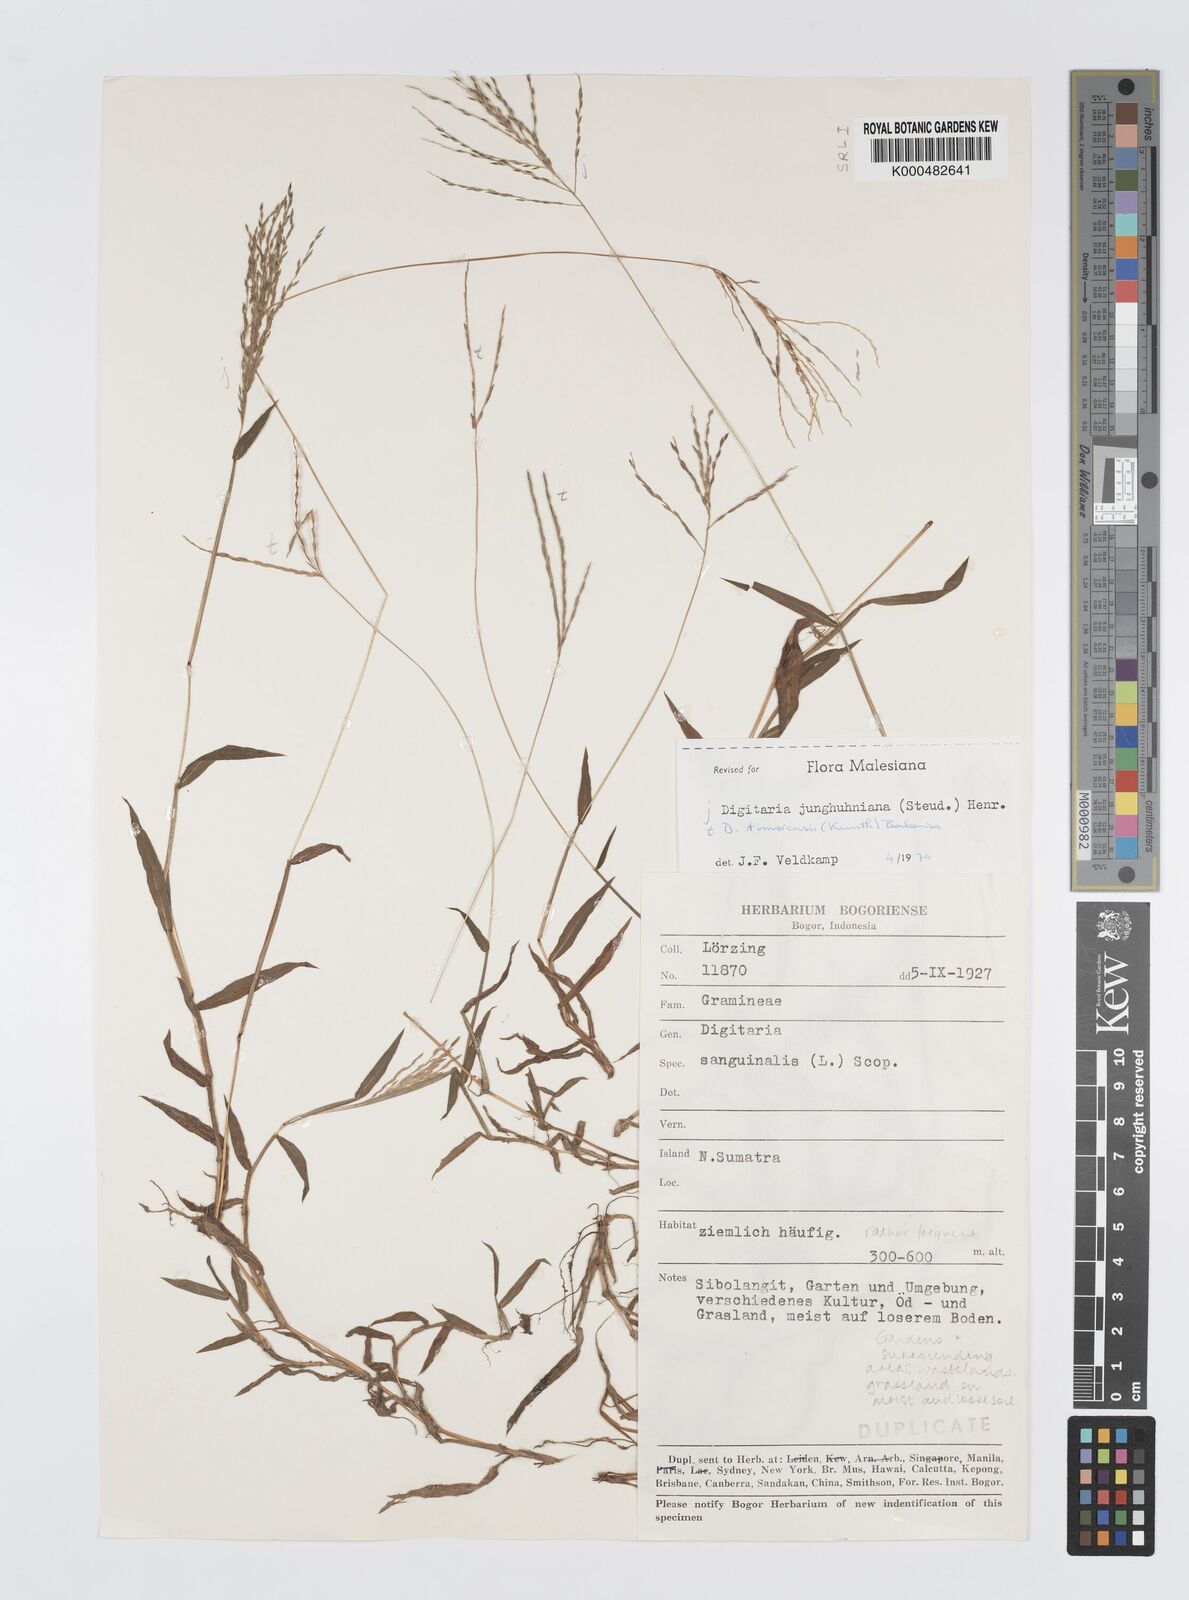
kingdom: Plantae
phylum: Tracheophyta
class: Liliopsida
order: Poales
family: Poaceae
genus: Digitaria
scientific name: Digitaria junghuhniana
